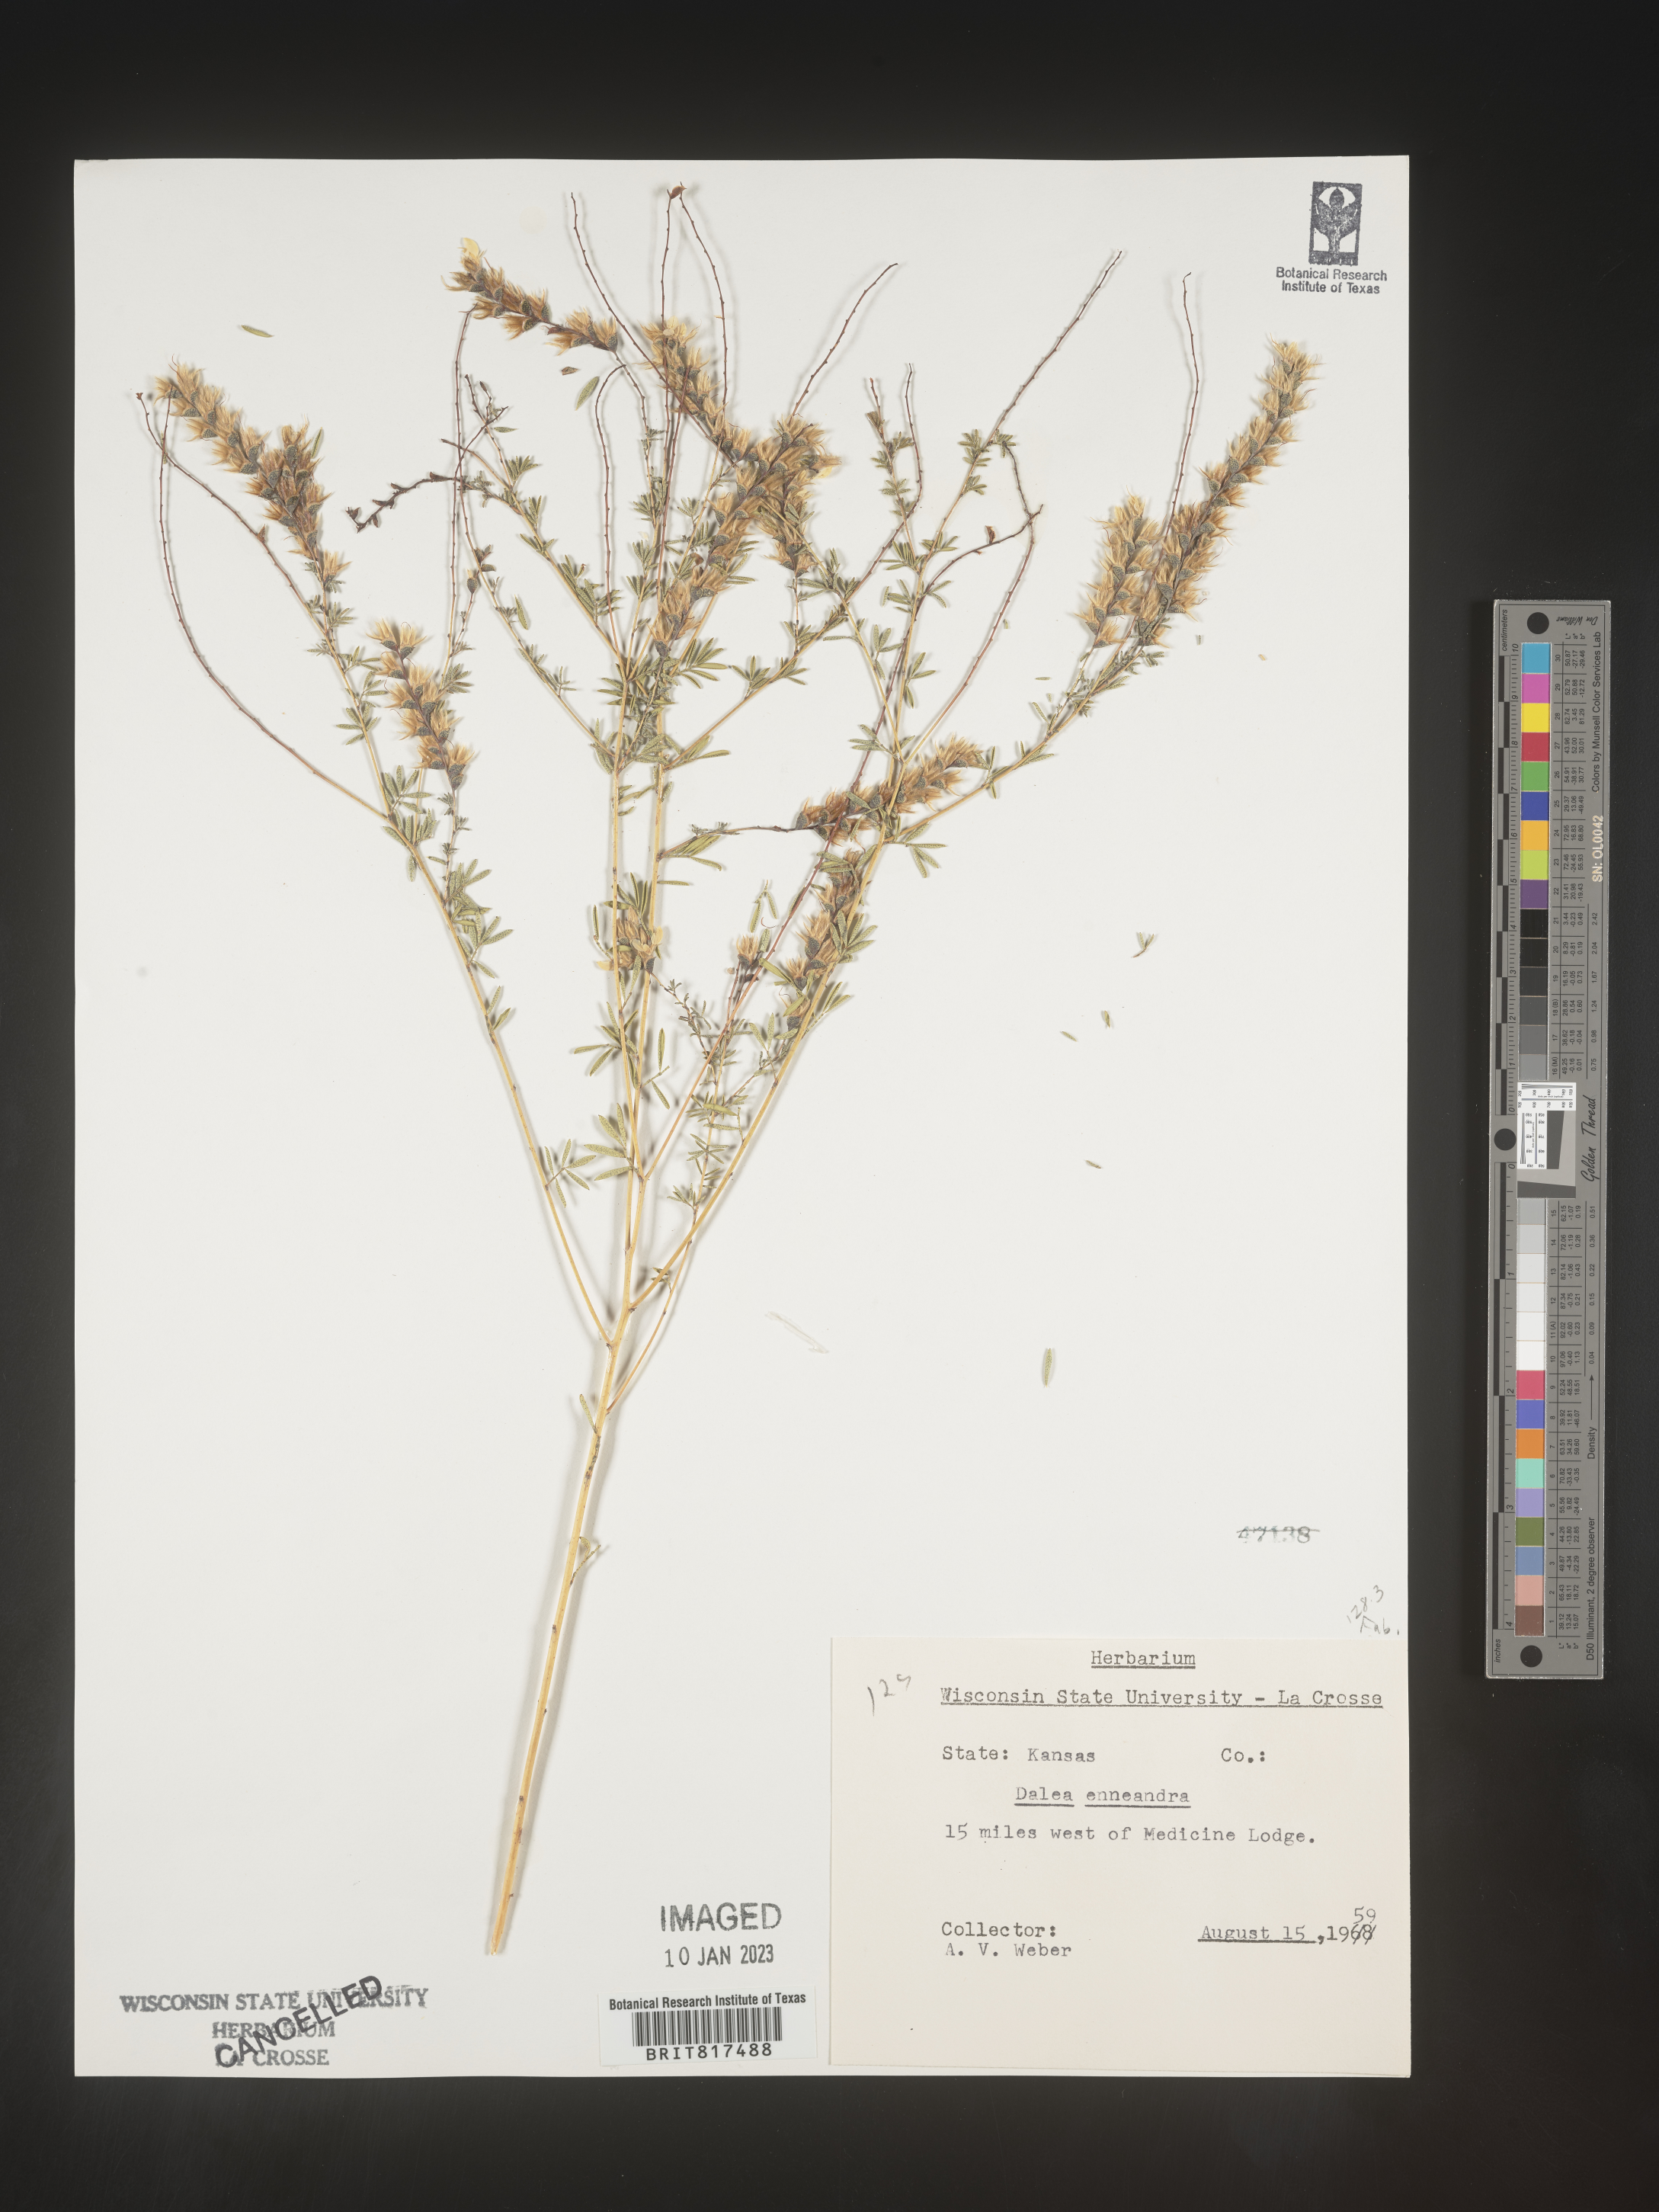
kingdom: Plantae
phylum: Tracheophyta
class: Magnoliopsida
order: Fabales
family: Fabaceae
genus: Dalea
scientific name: Dalea
